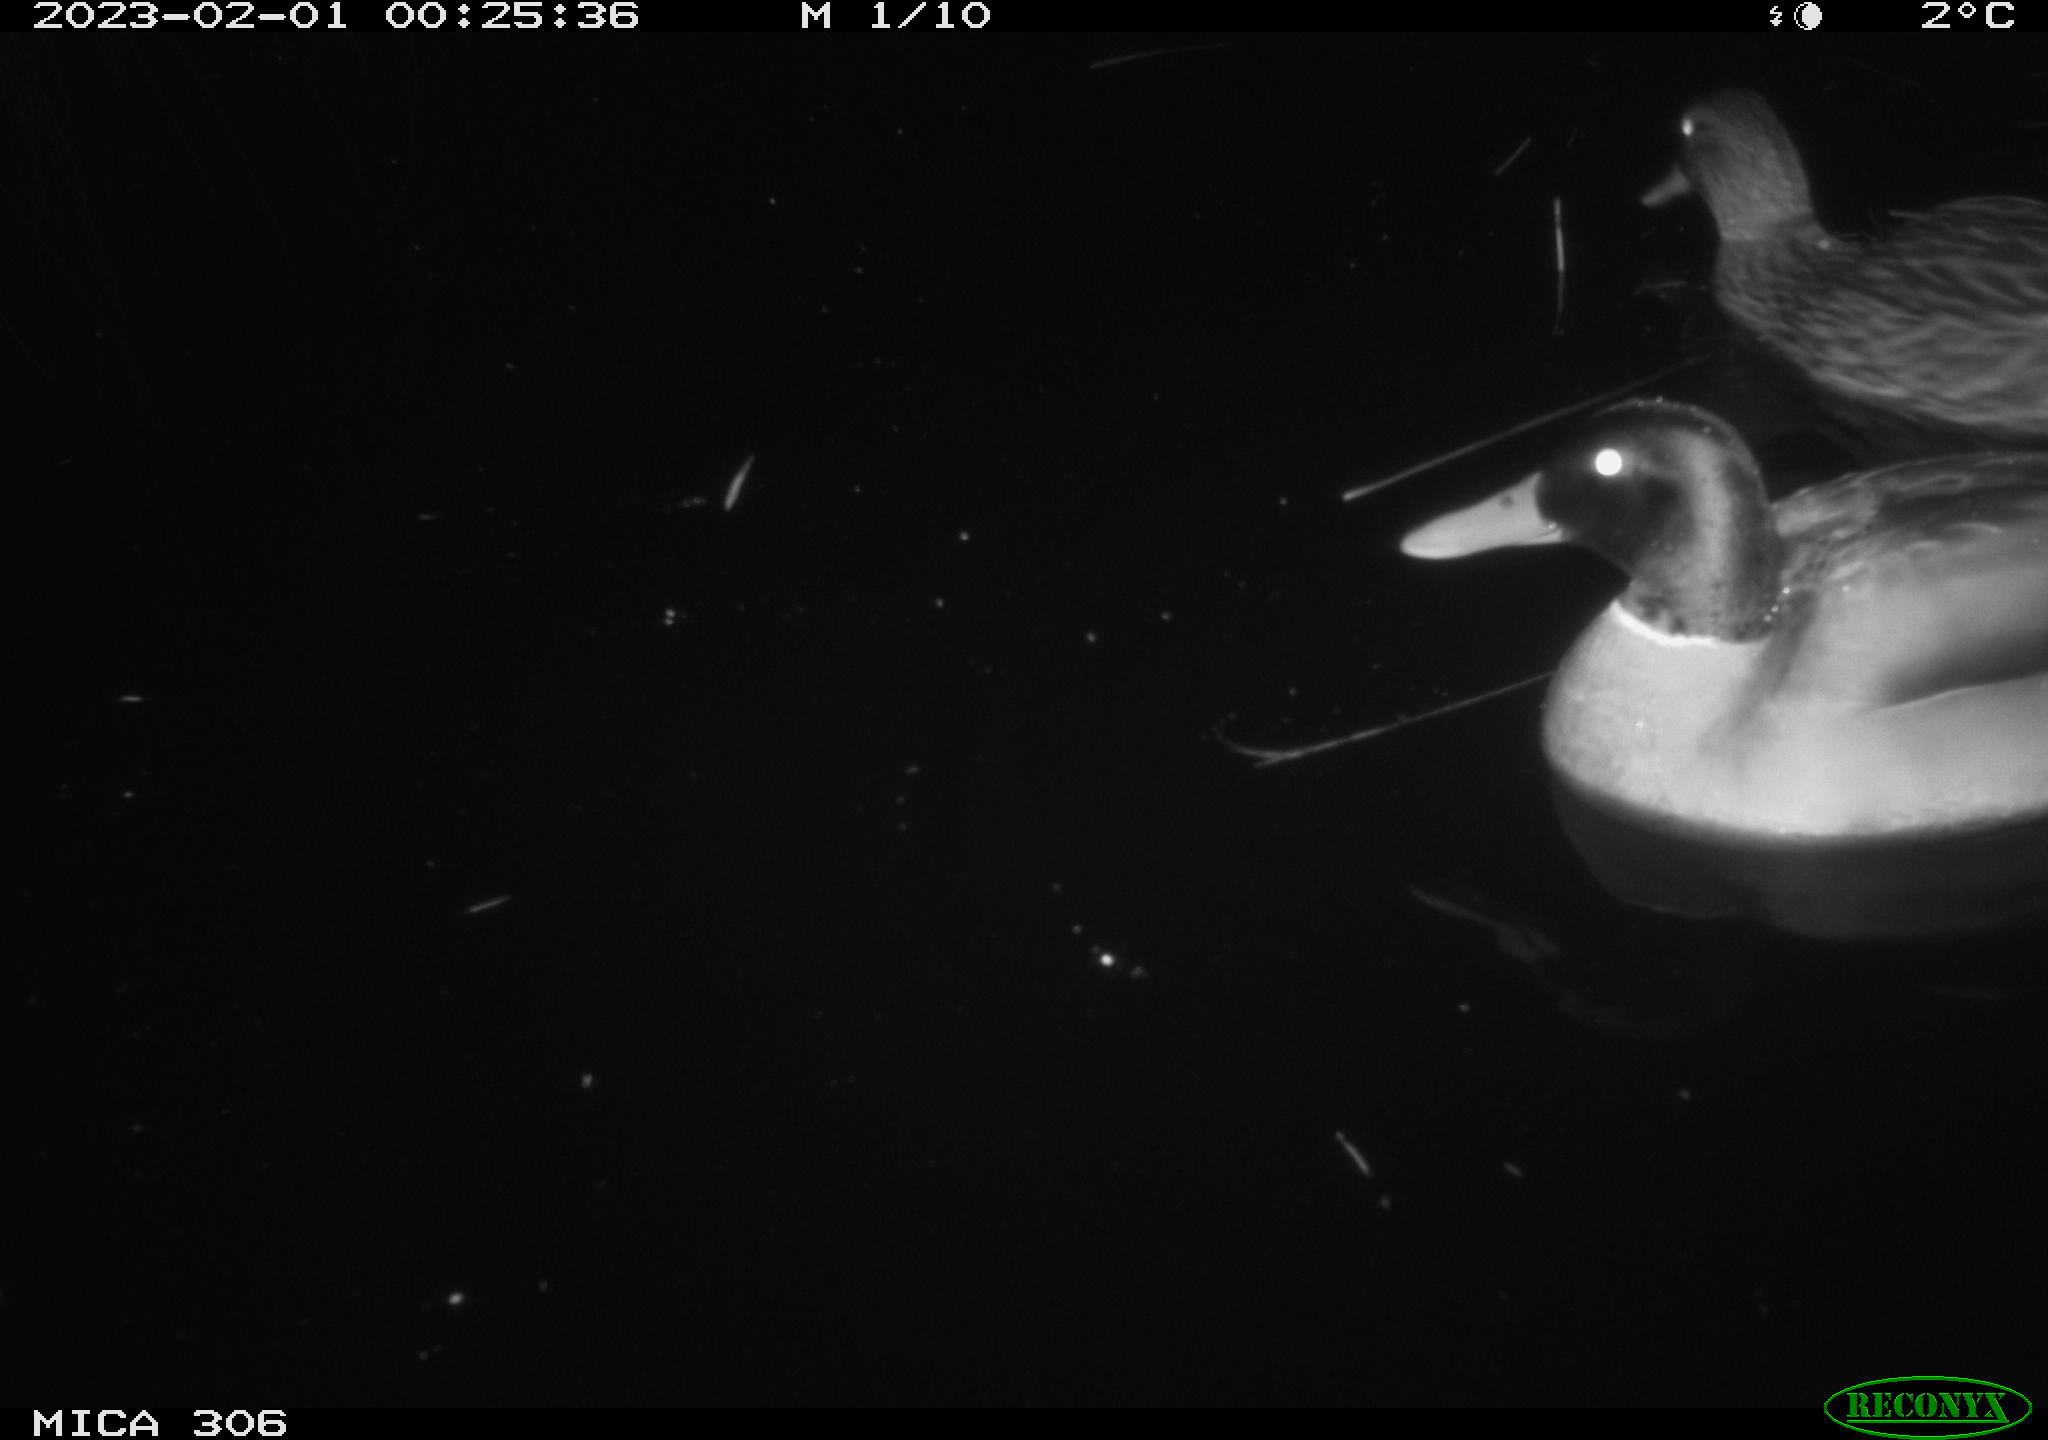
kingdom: Animalia
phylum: Chordata
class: Aves
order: Anseriformes
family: Anatidae
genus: Anas
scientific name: Anas
